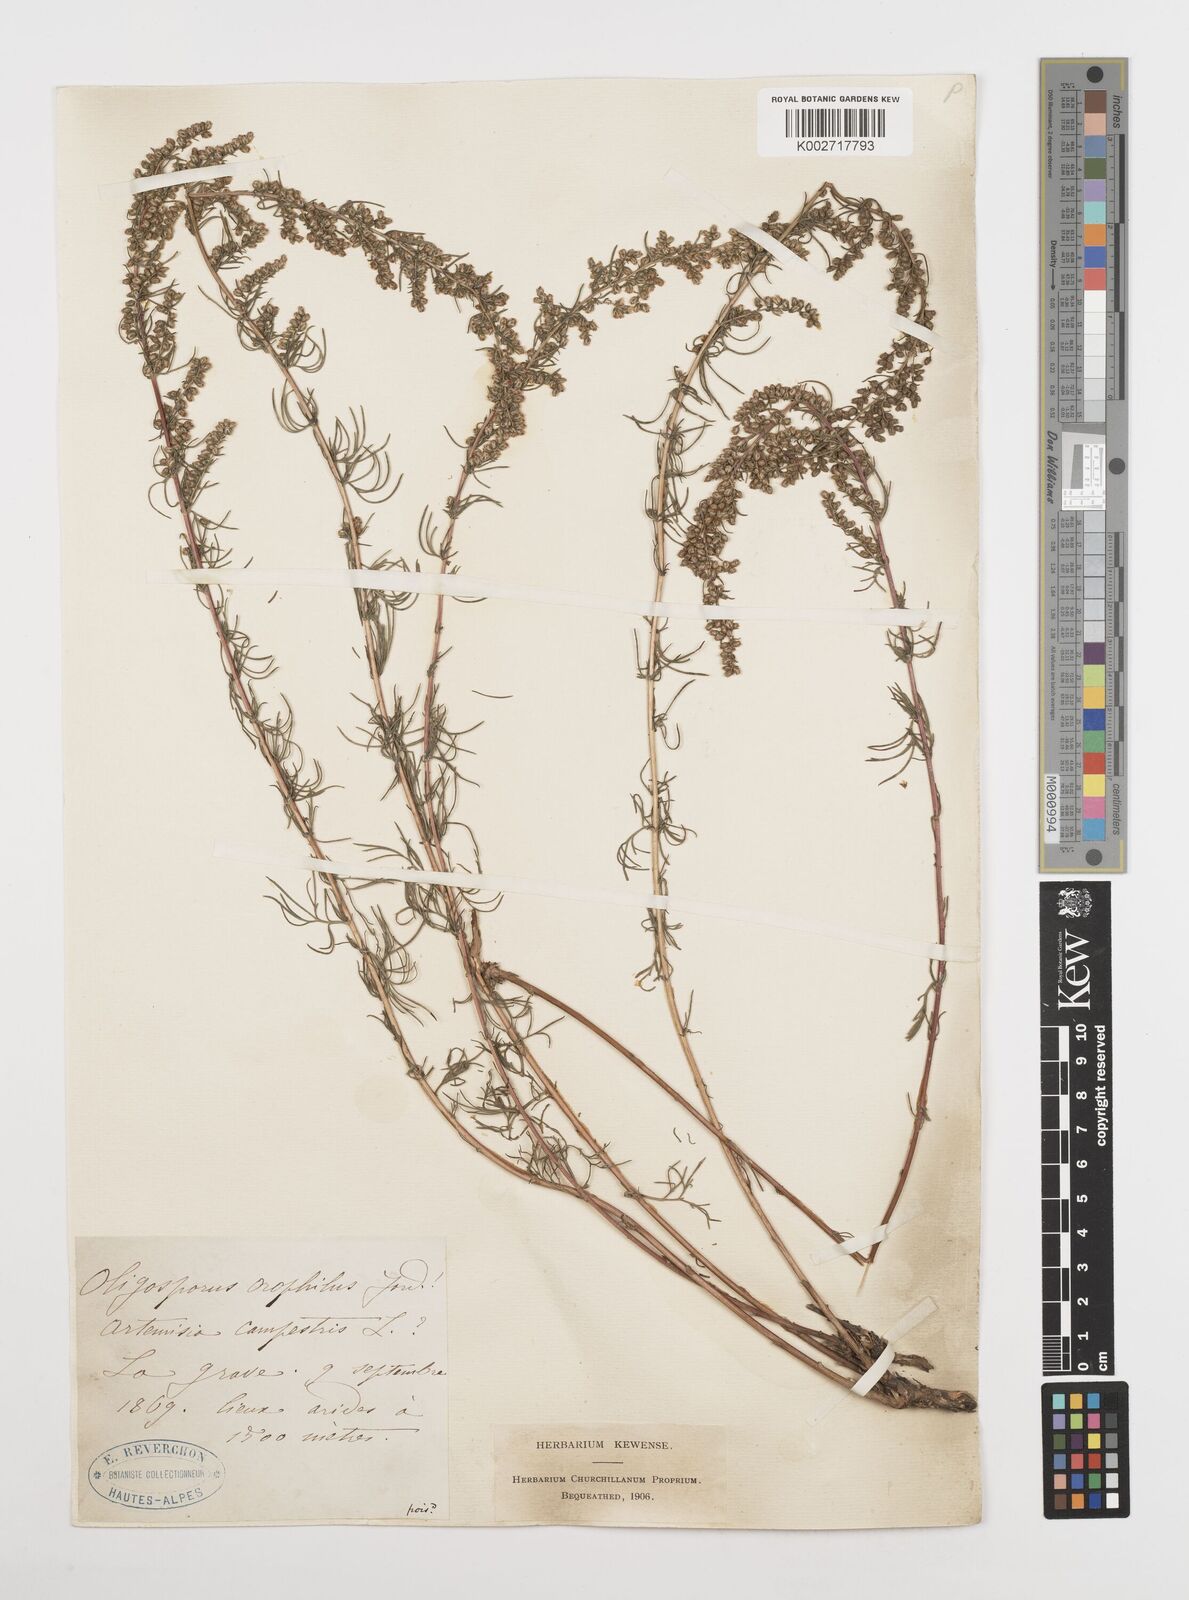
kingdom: Plantae
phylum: Tracheophyta
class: Magnoliopsida
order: Asterales
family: Asteraceae
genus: Artemisia
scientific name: Artemisia
